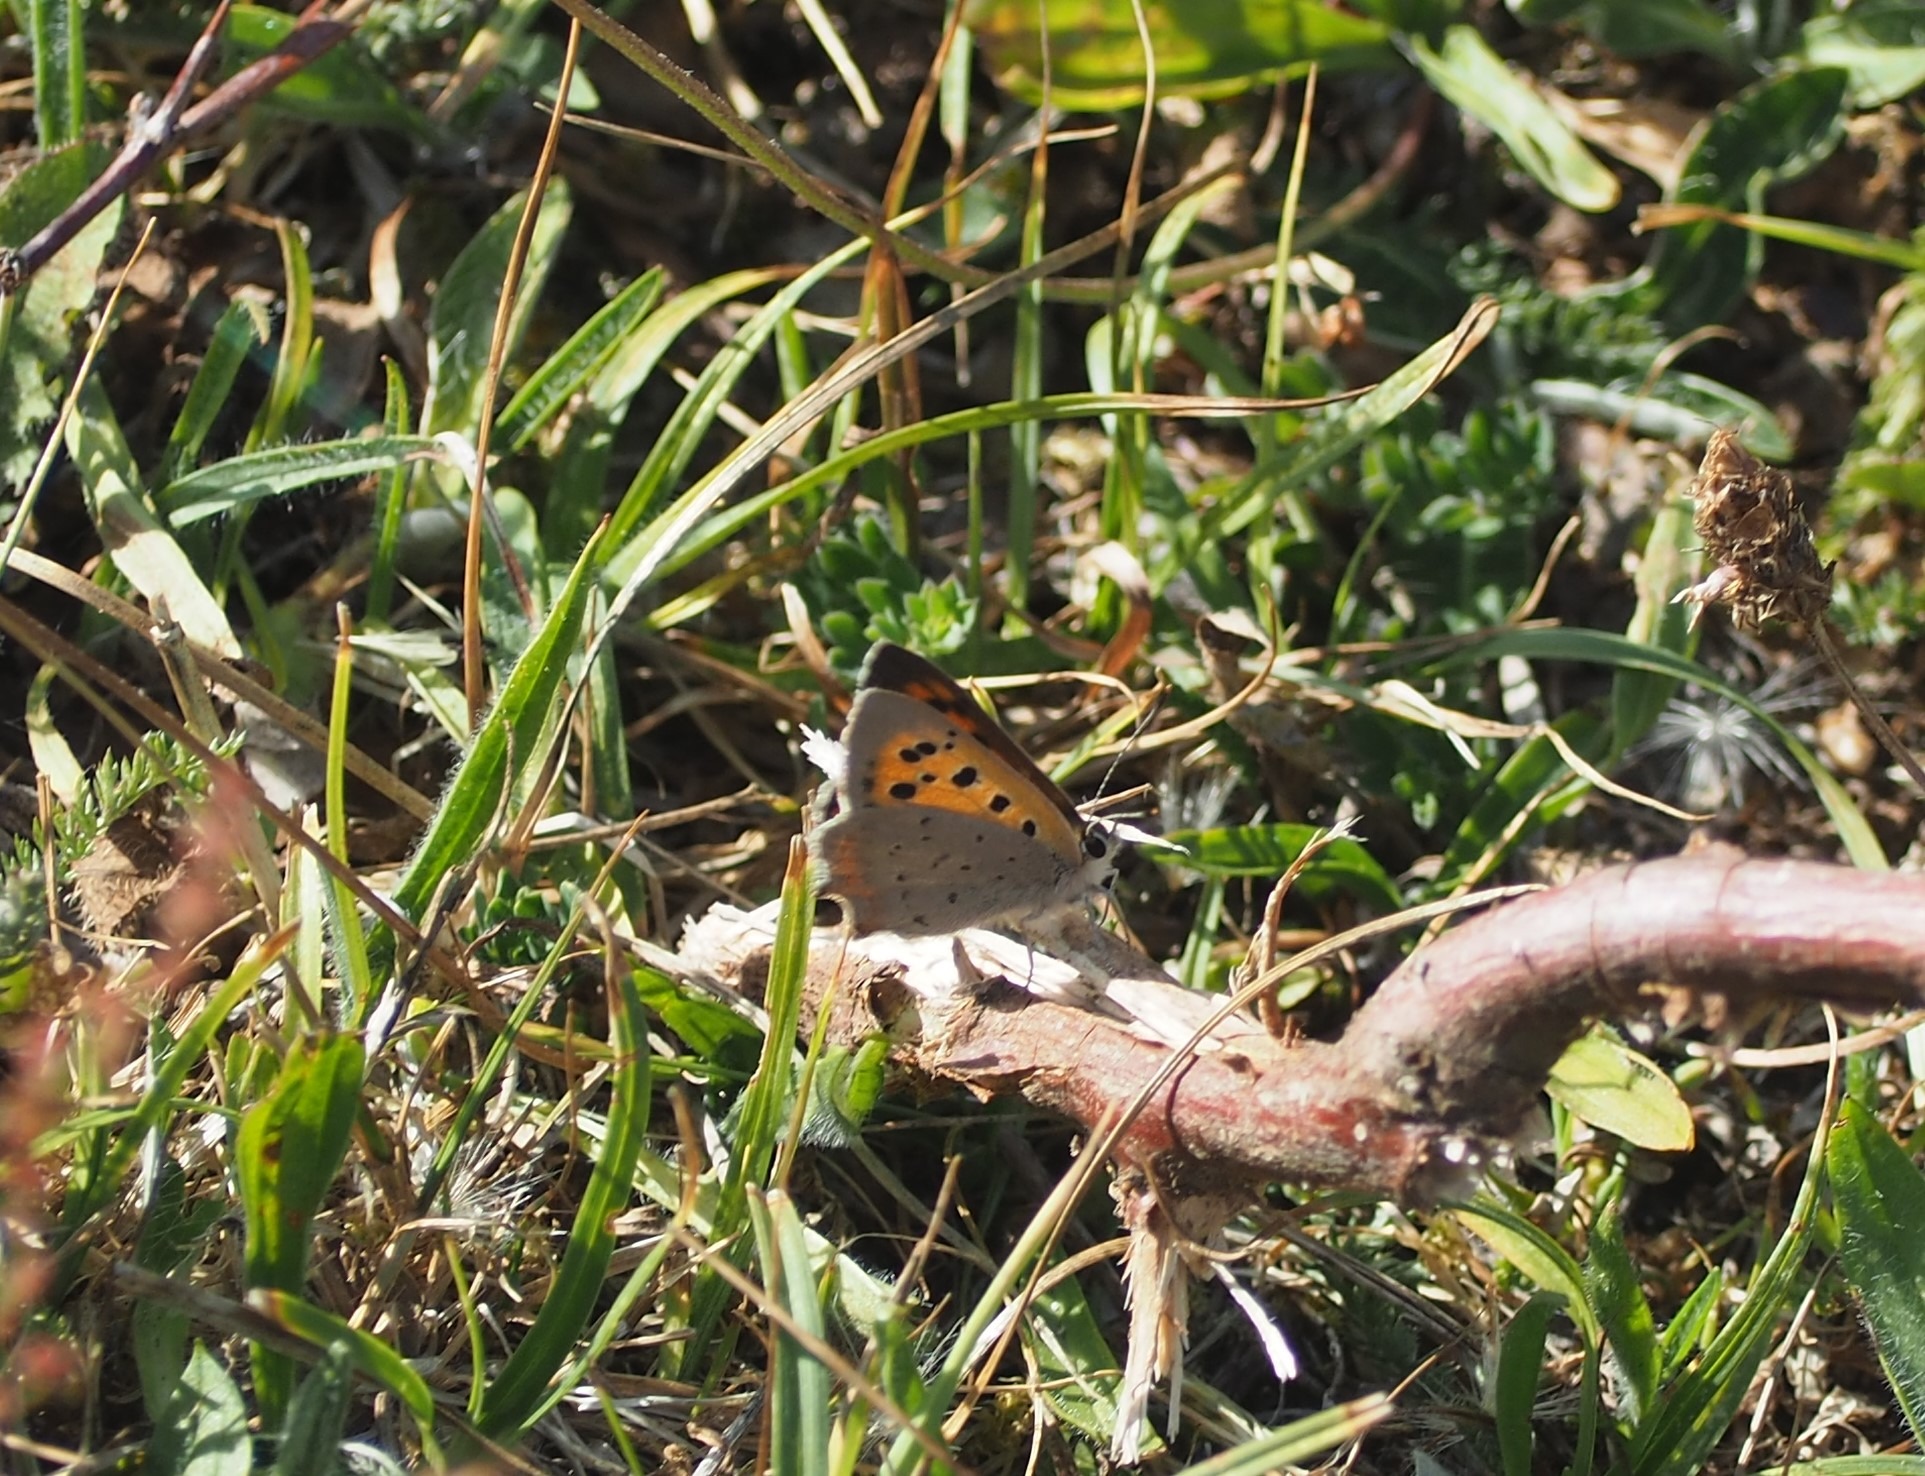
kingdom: Animalia
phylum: Arthropoda
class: Insecta
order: Lepidoptera
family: Lycaenidae
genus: Lycaena
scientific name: Lycaena phlaeas
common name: Lille ildfugl
